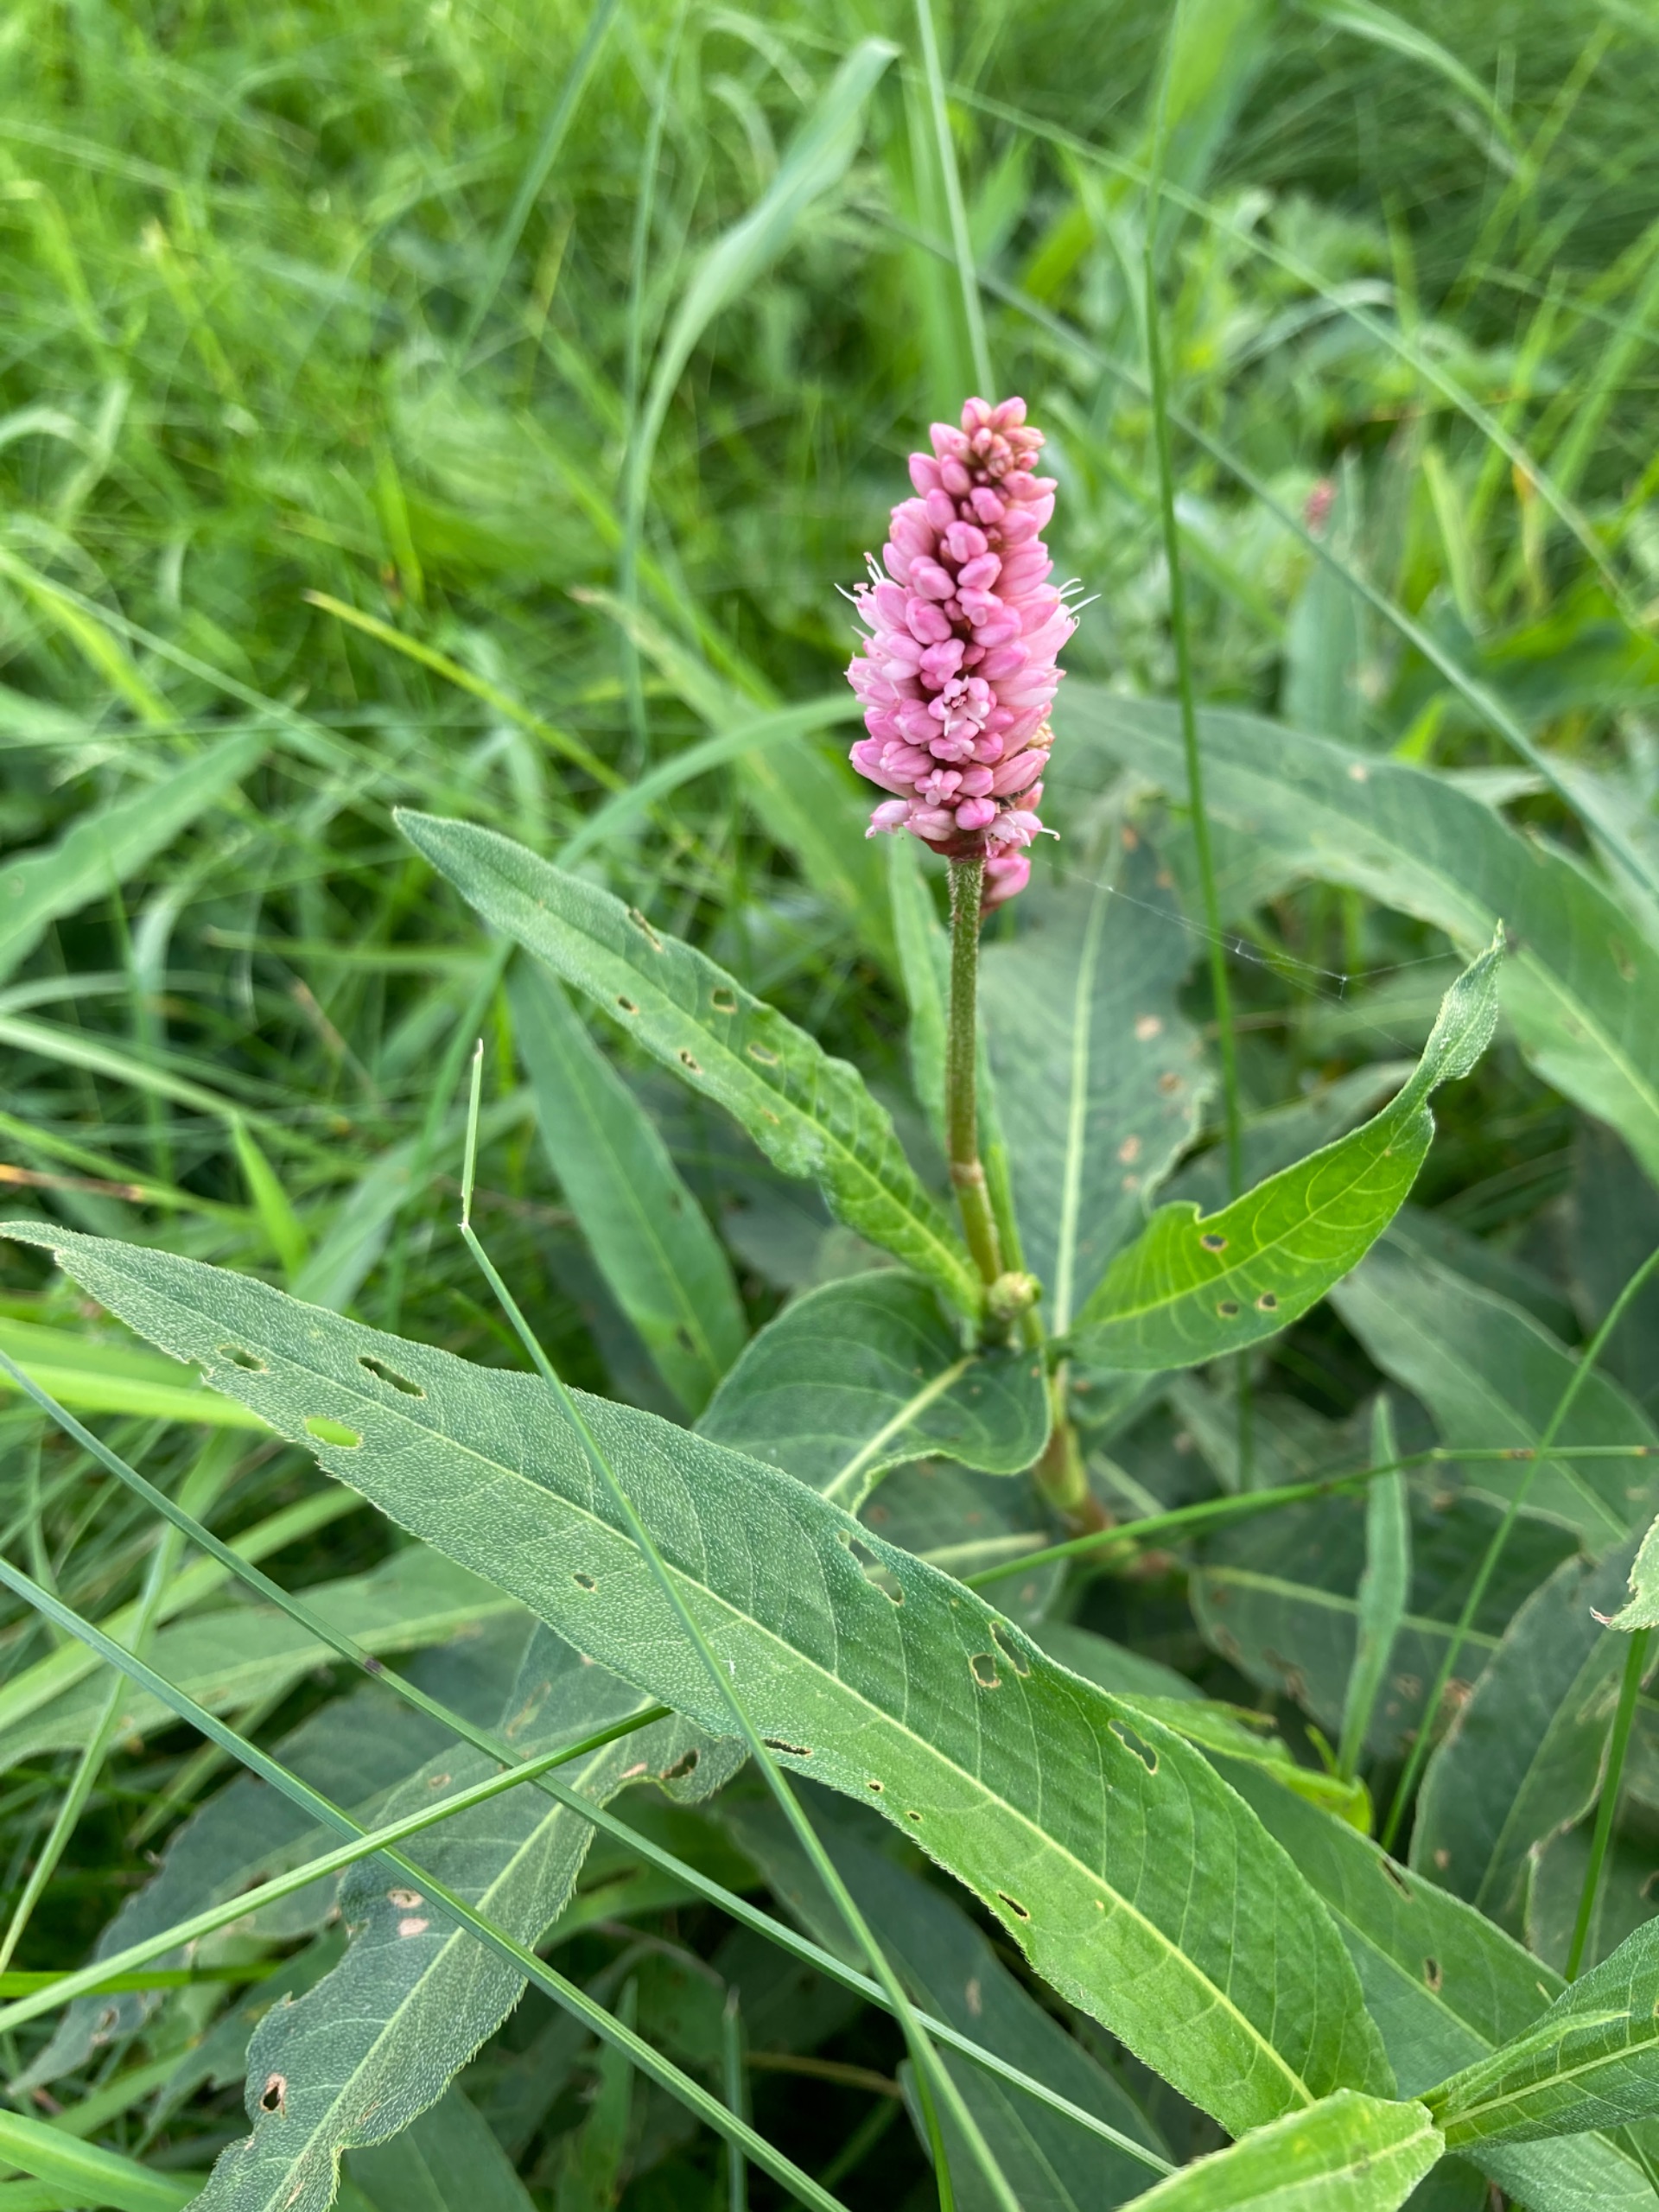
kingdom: Plantae
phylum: Tracheophyta
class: Magnoliopsida
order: Caryophyllales
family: Polygonaceae
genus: Persicaria
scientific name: Persicaria amphibia
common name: Vand-pileurt
